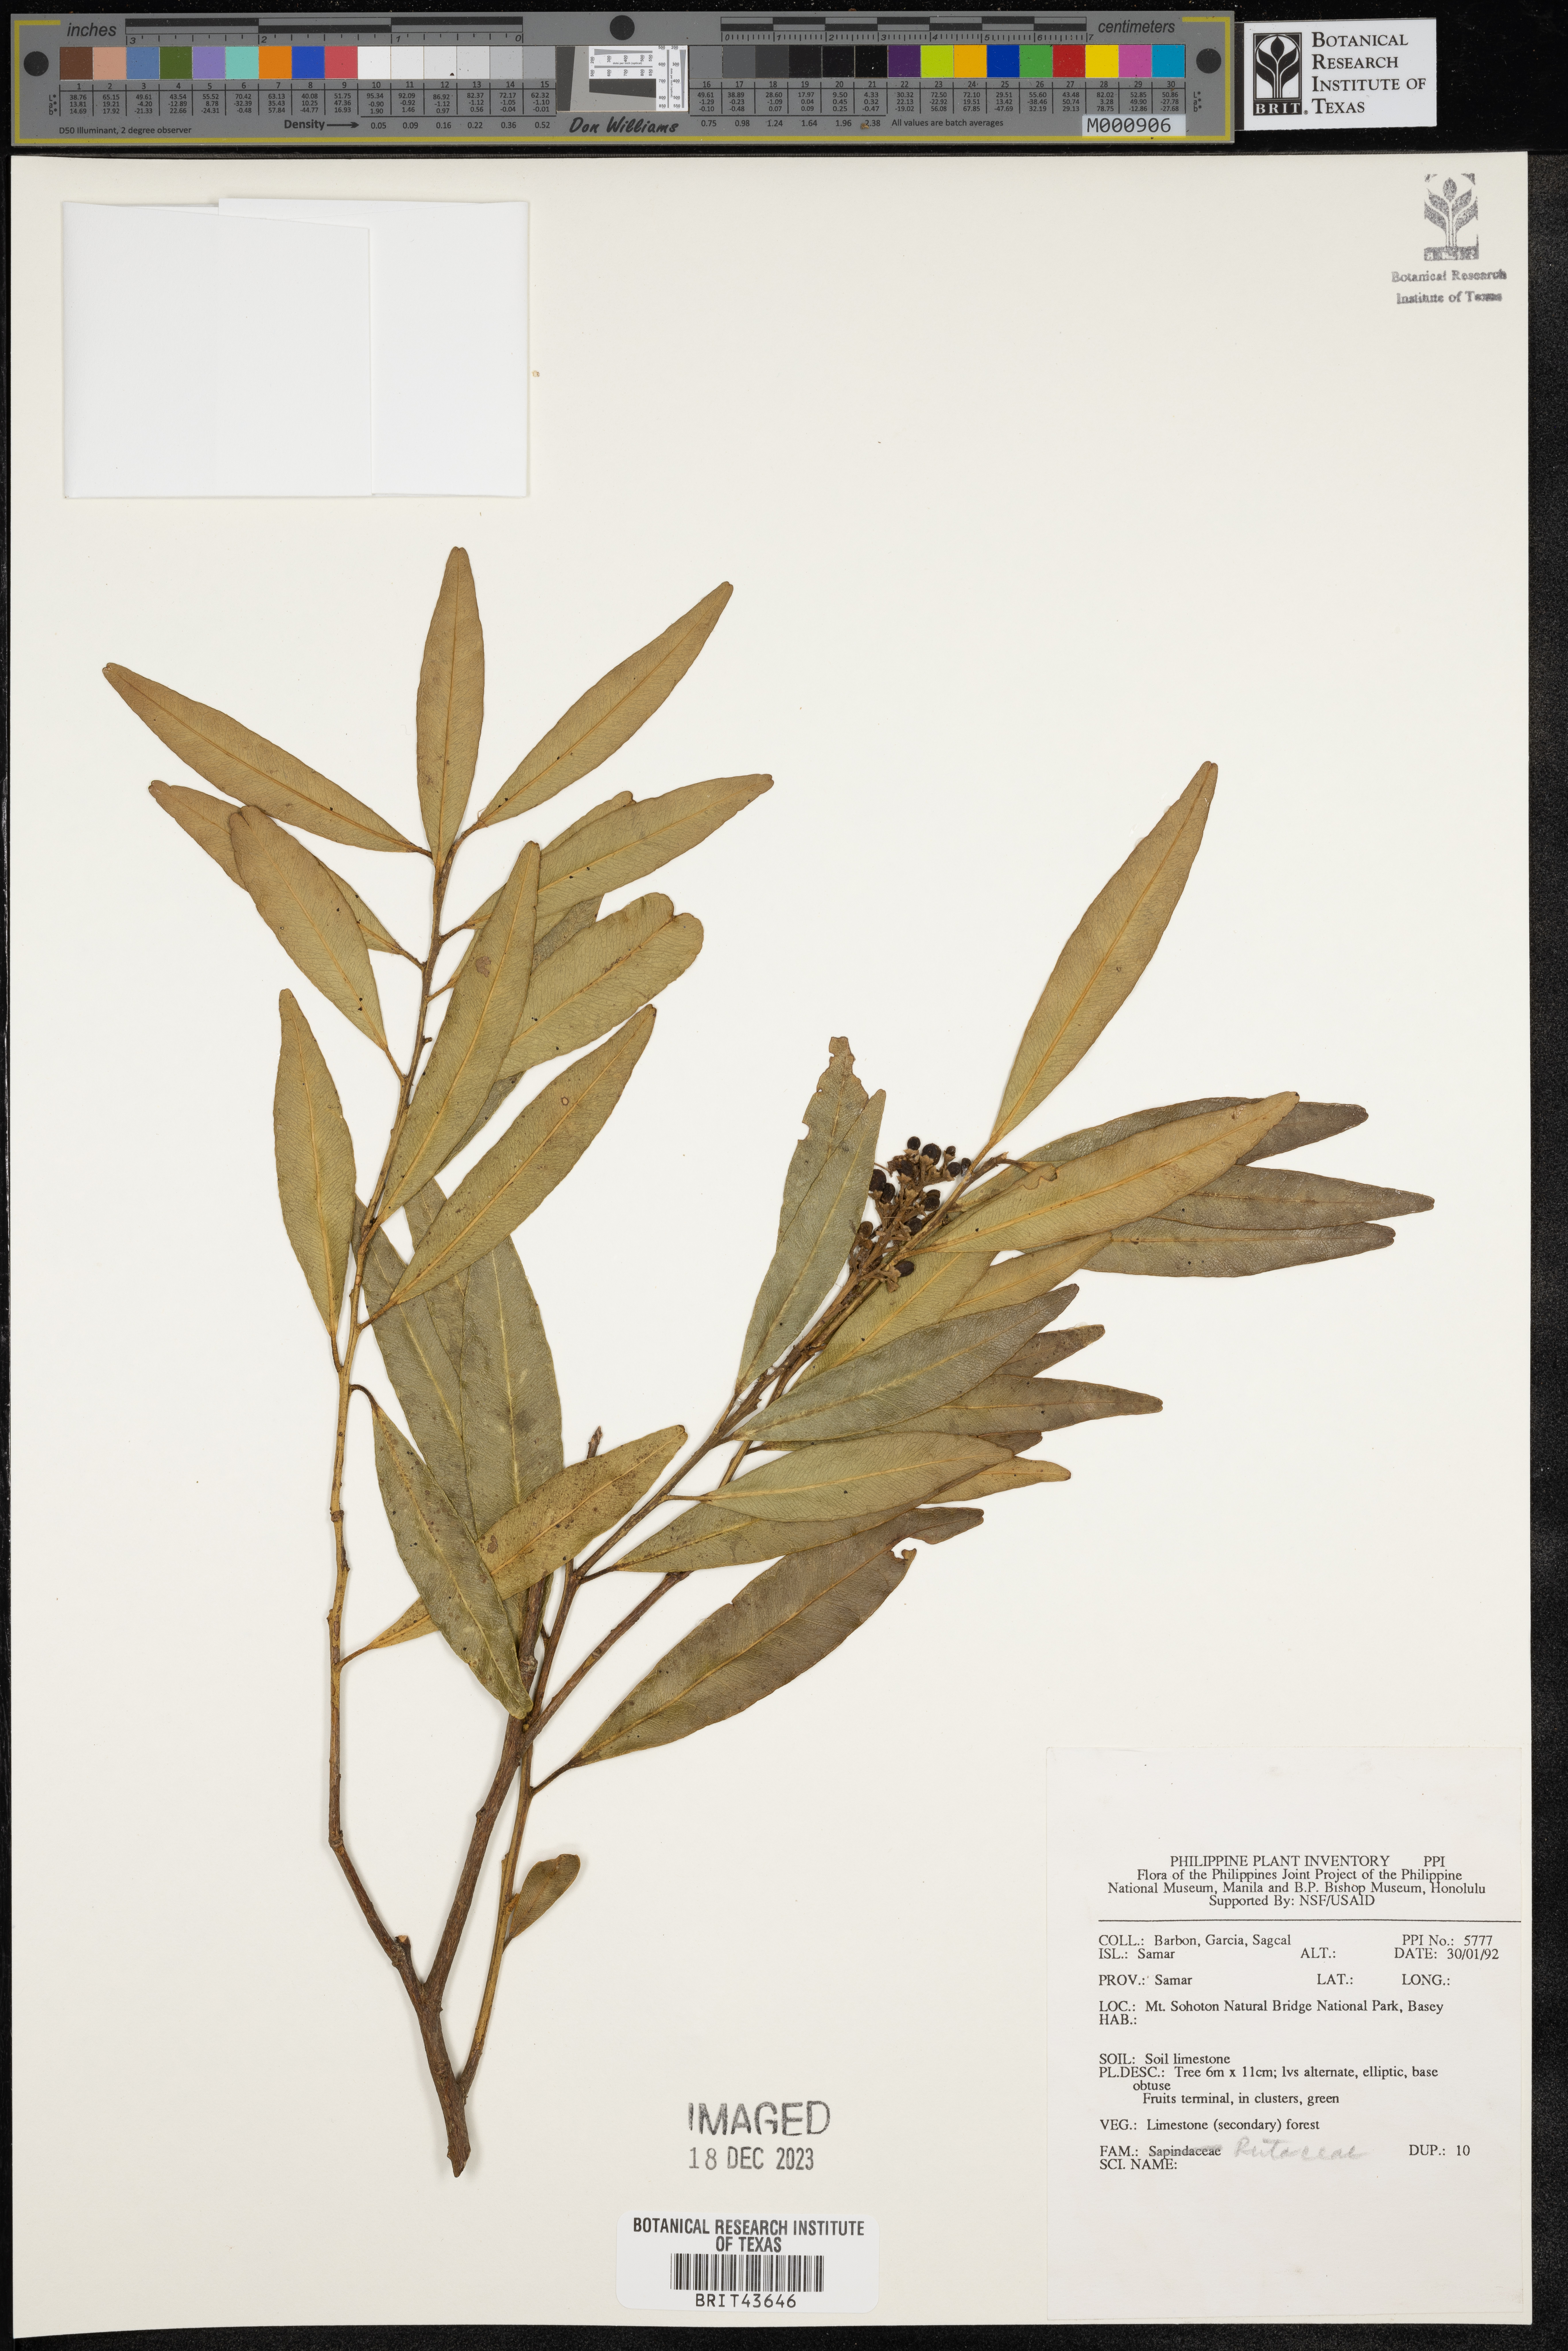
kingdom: Plantae
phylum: Tracheophyta
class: Magnoliopsida
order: Sapindales
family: Rutaceae
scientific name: Rutaceae
